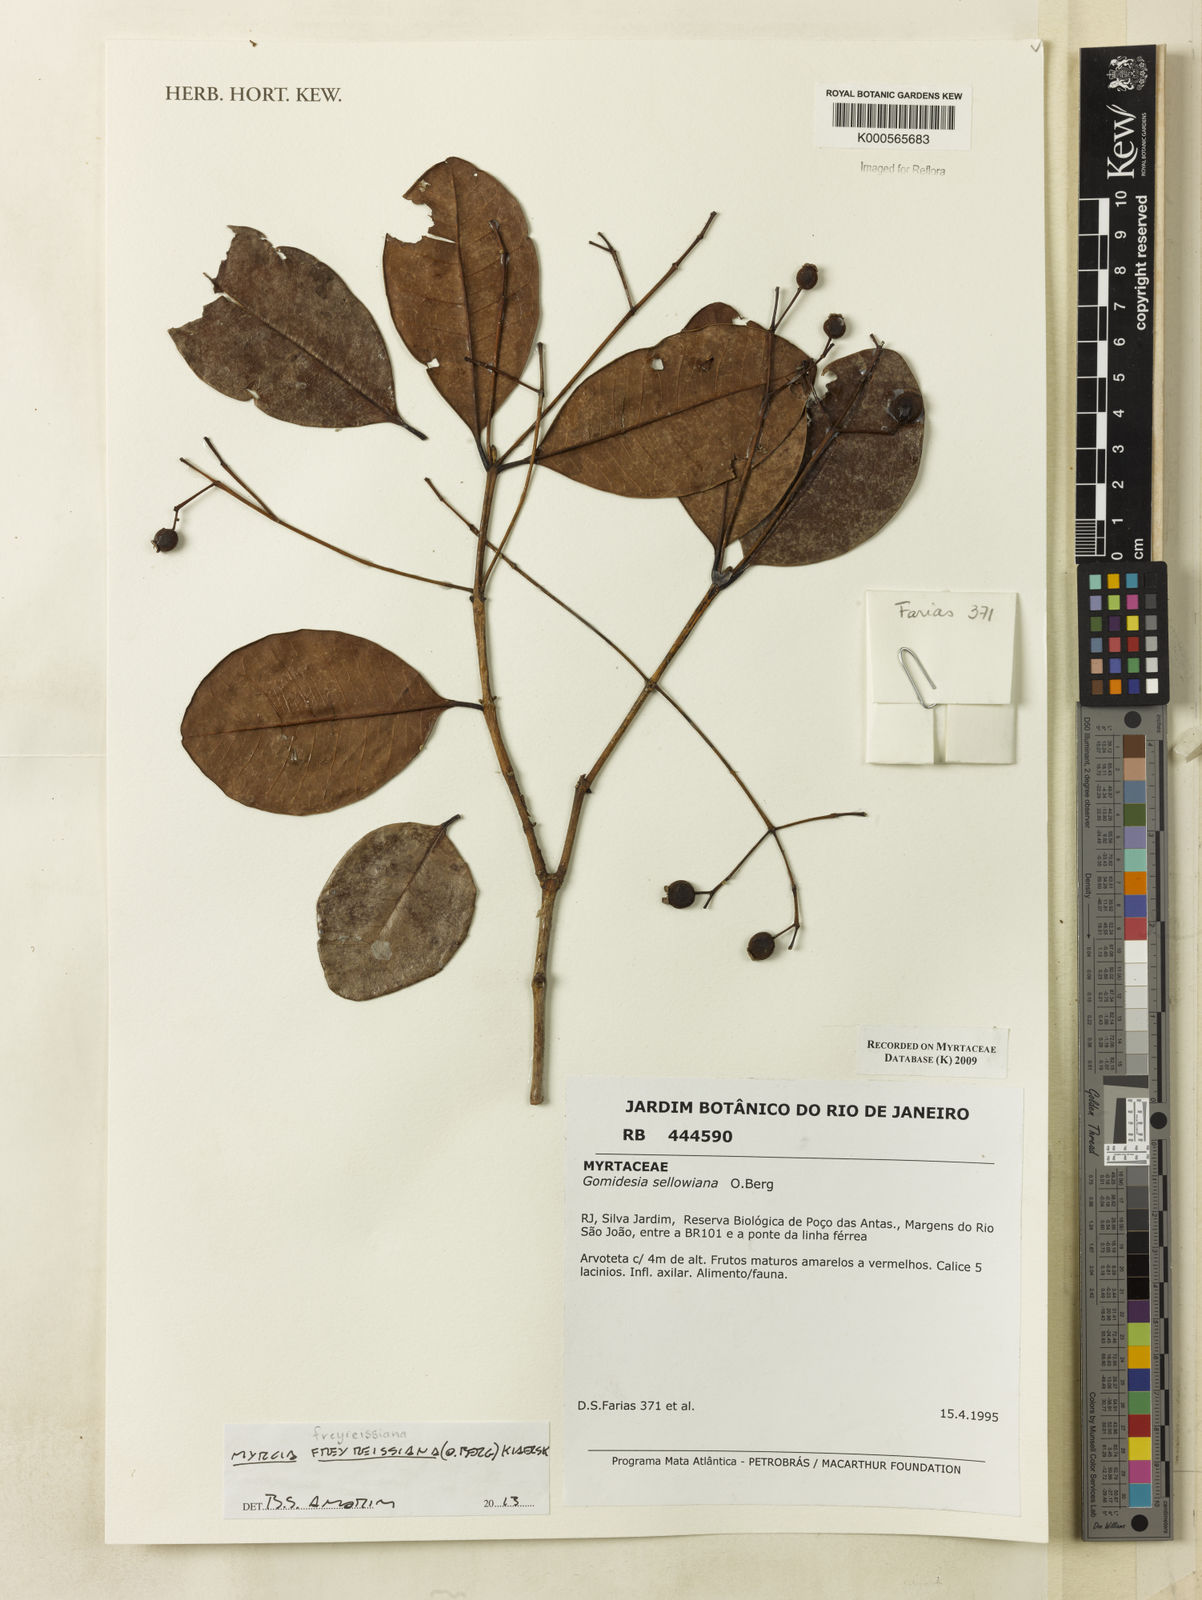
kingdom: Plantae
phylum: Tracheophyta
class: Magnoliopsida
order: Myrtales
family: Myrtaceae
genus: Myrcia
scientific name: Myrcia freyreissiana
